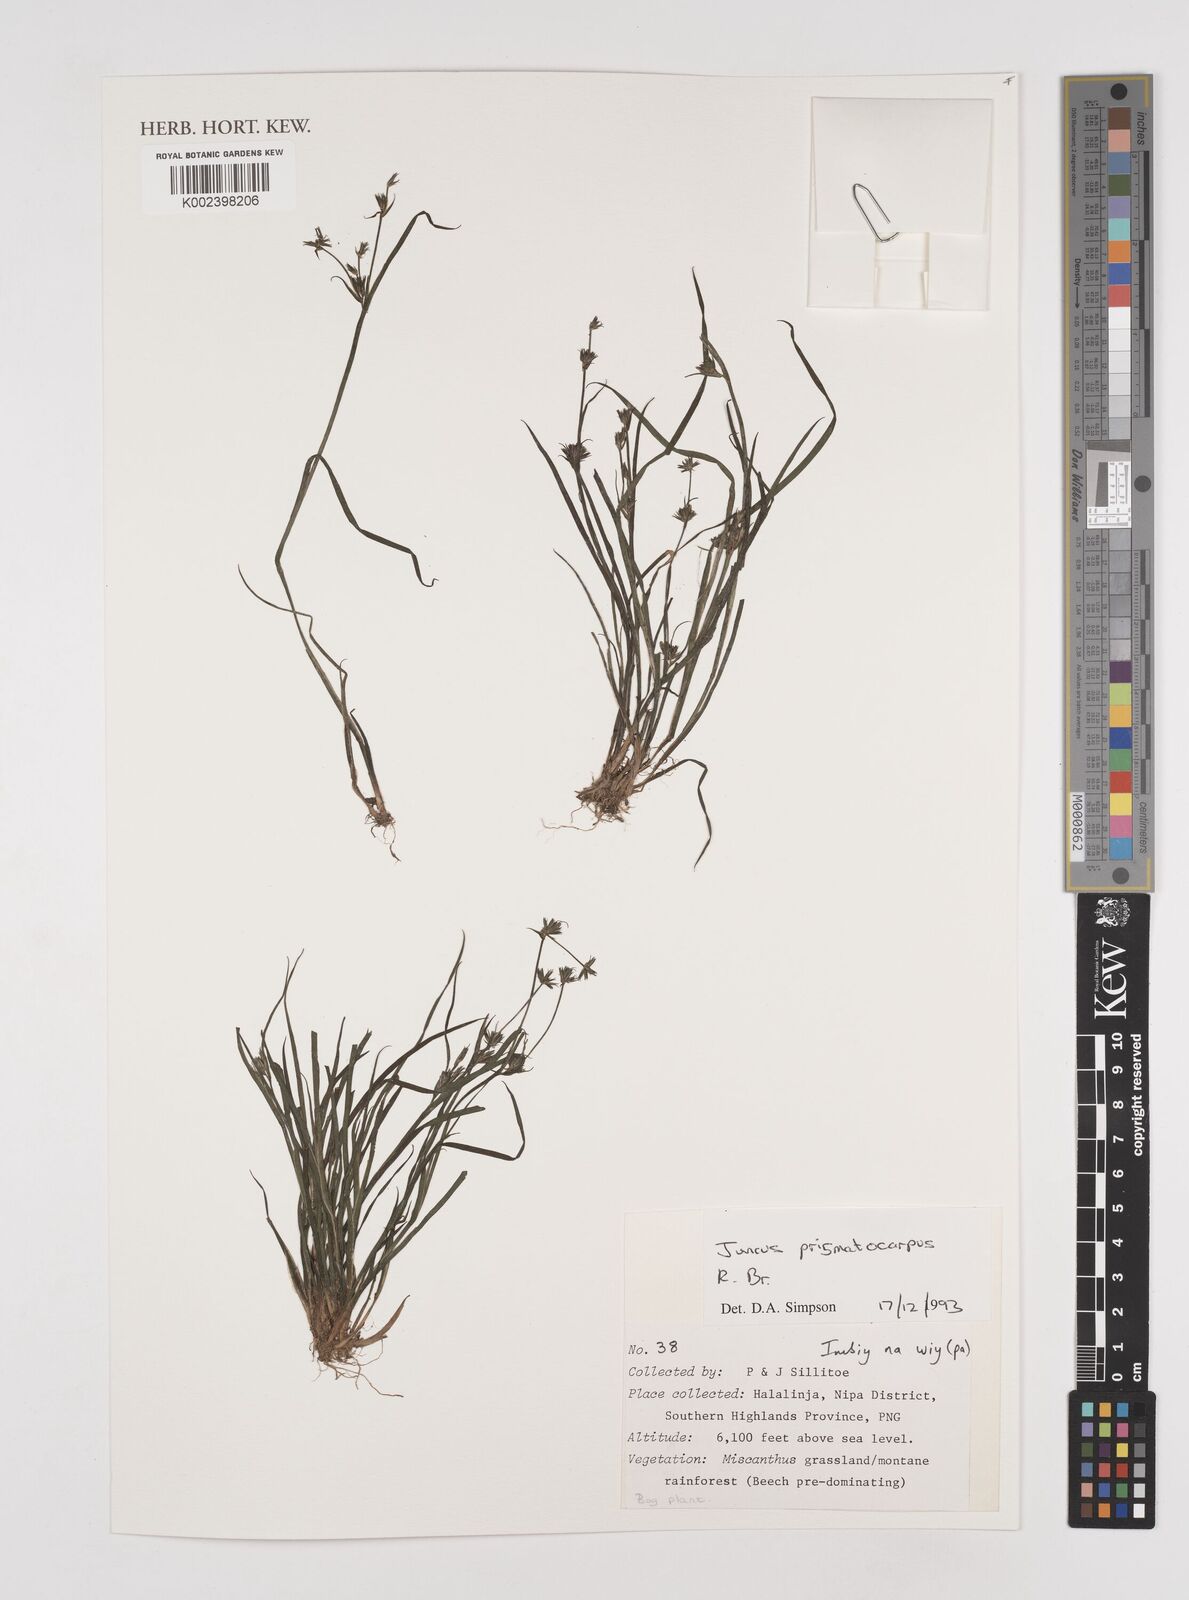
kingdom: Plantae
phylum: Tracheophyta
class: Liliopsida
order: Poales
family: Juncaceae
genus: Juncus
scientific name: Juncus prismatocarpus
